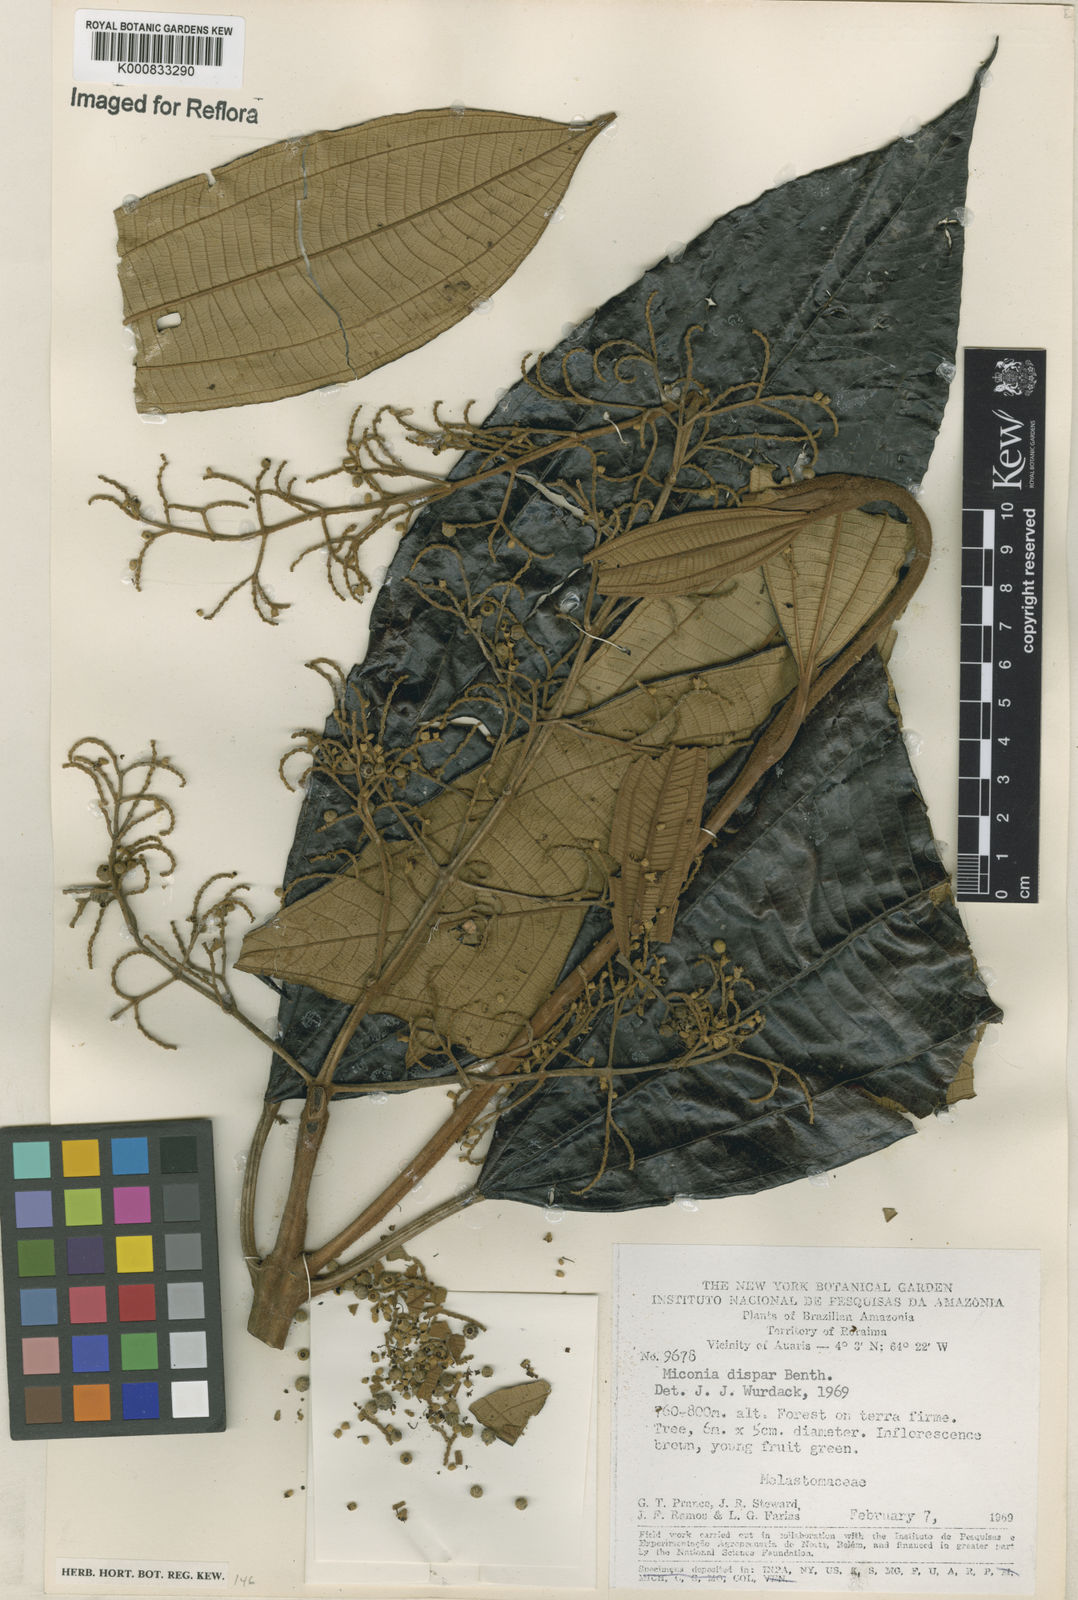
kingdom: Plantae
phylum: Tracheophyta
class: Magnoliopsida
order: Myrtales
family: Melastomataceae
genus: Miconia
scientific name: Miconia dispar
